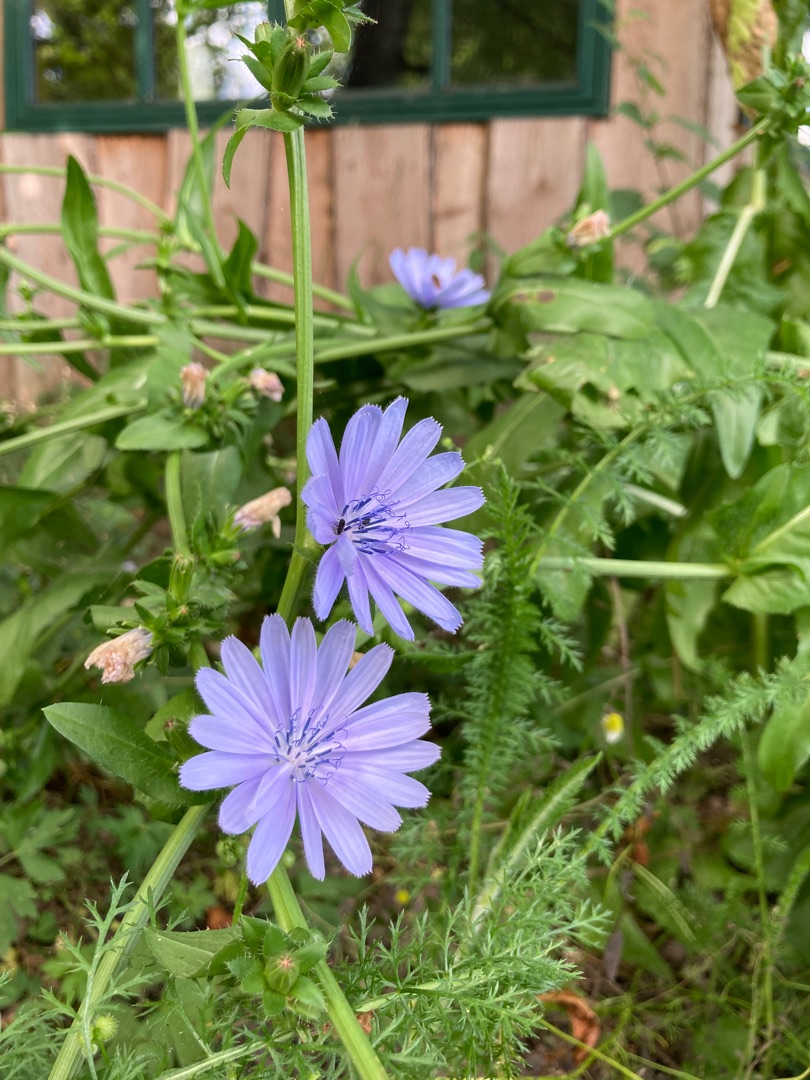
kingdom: Plantae
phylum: Tracheophyta
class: Magnoliopsida
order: Asterales
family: Asteraceae
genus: Cichorium
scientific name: Cichorium intybus
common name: Cikorie
